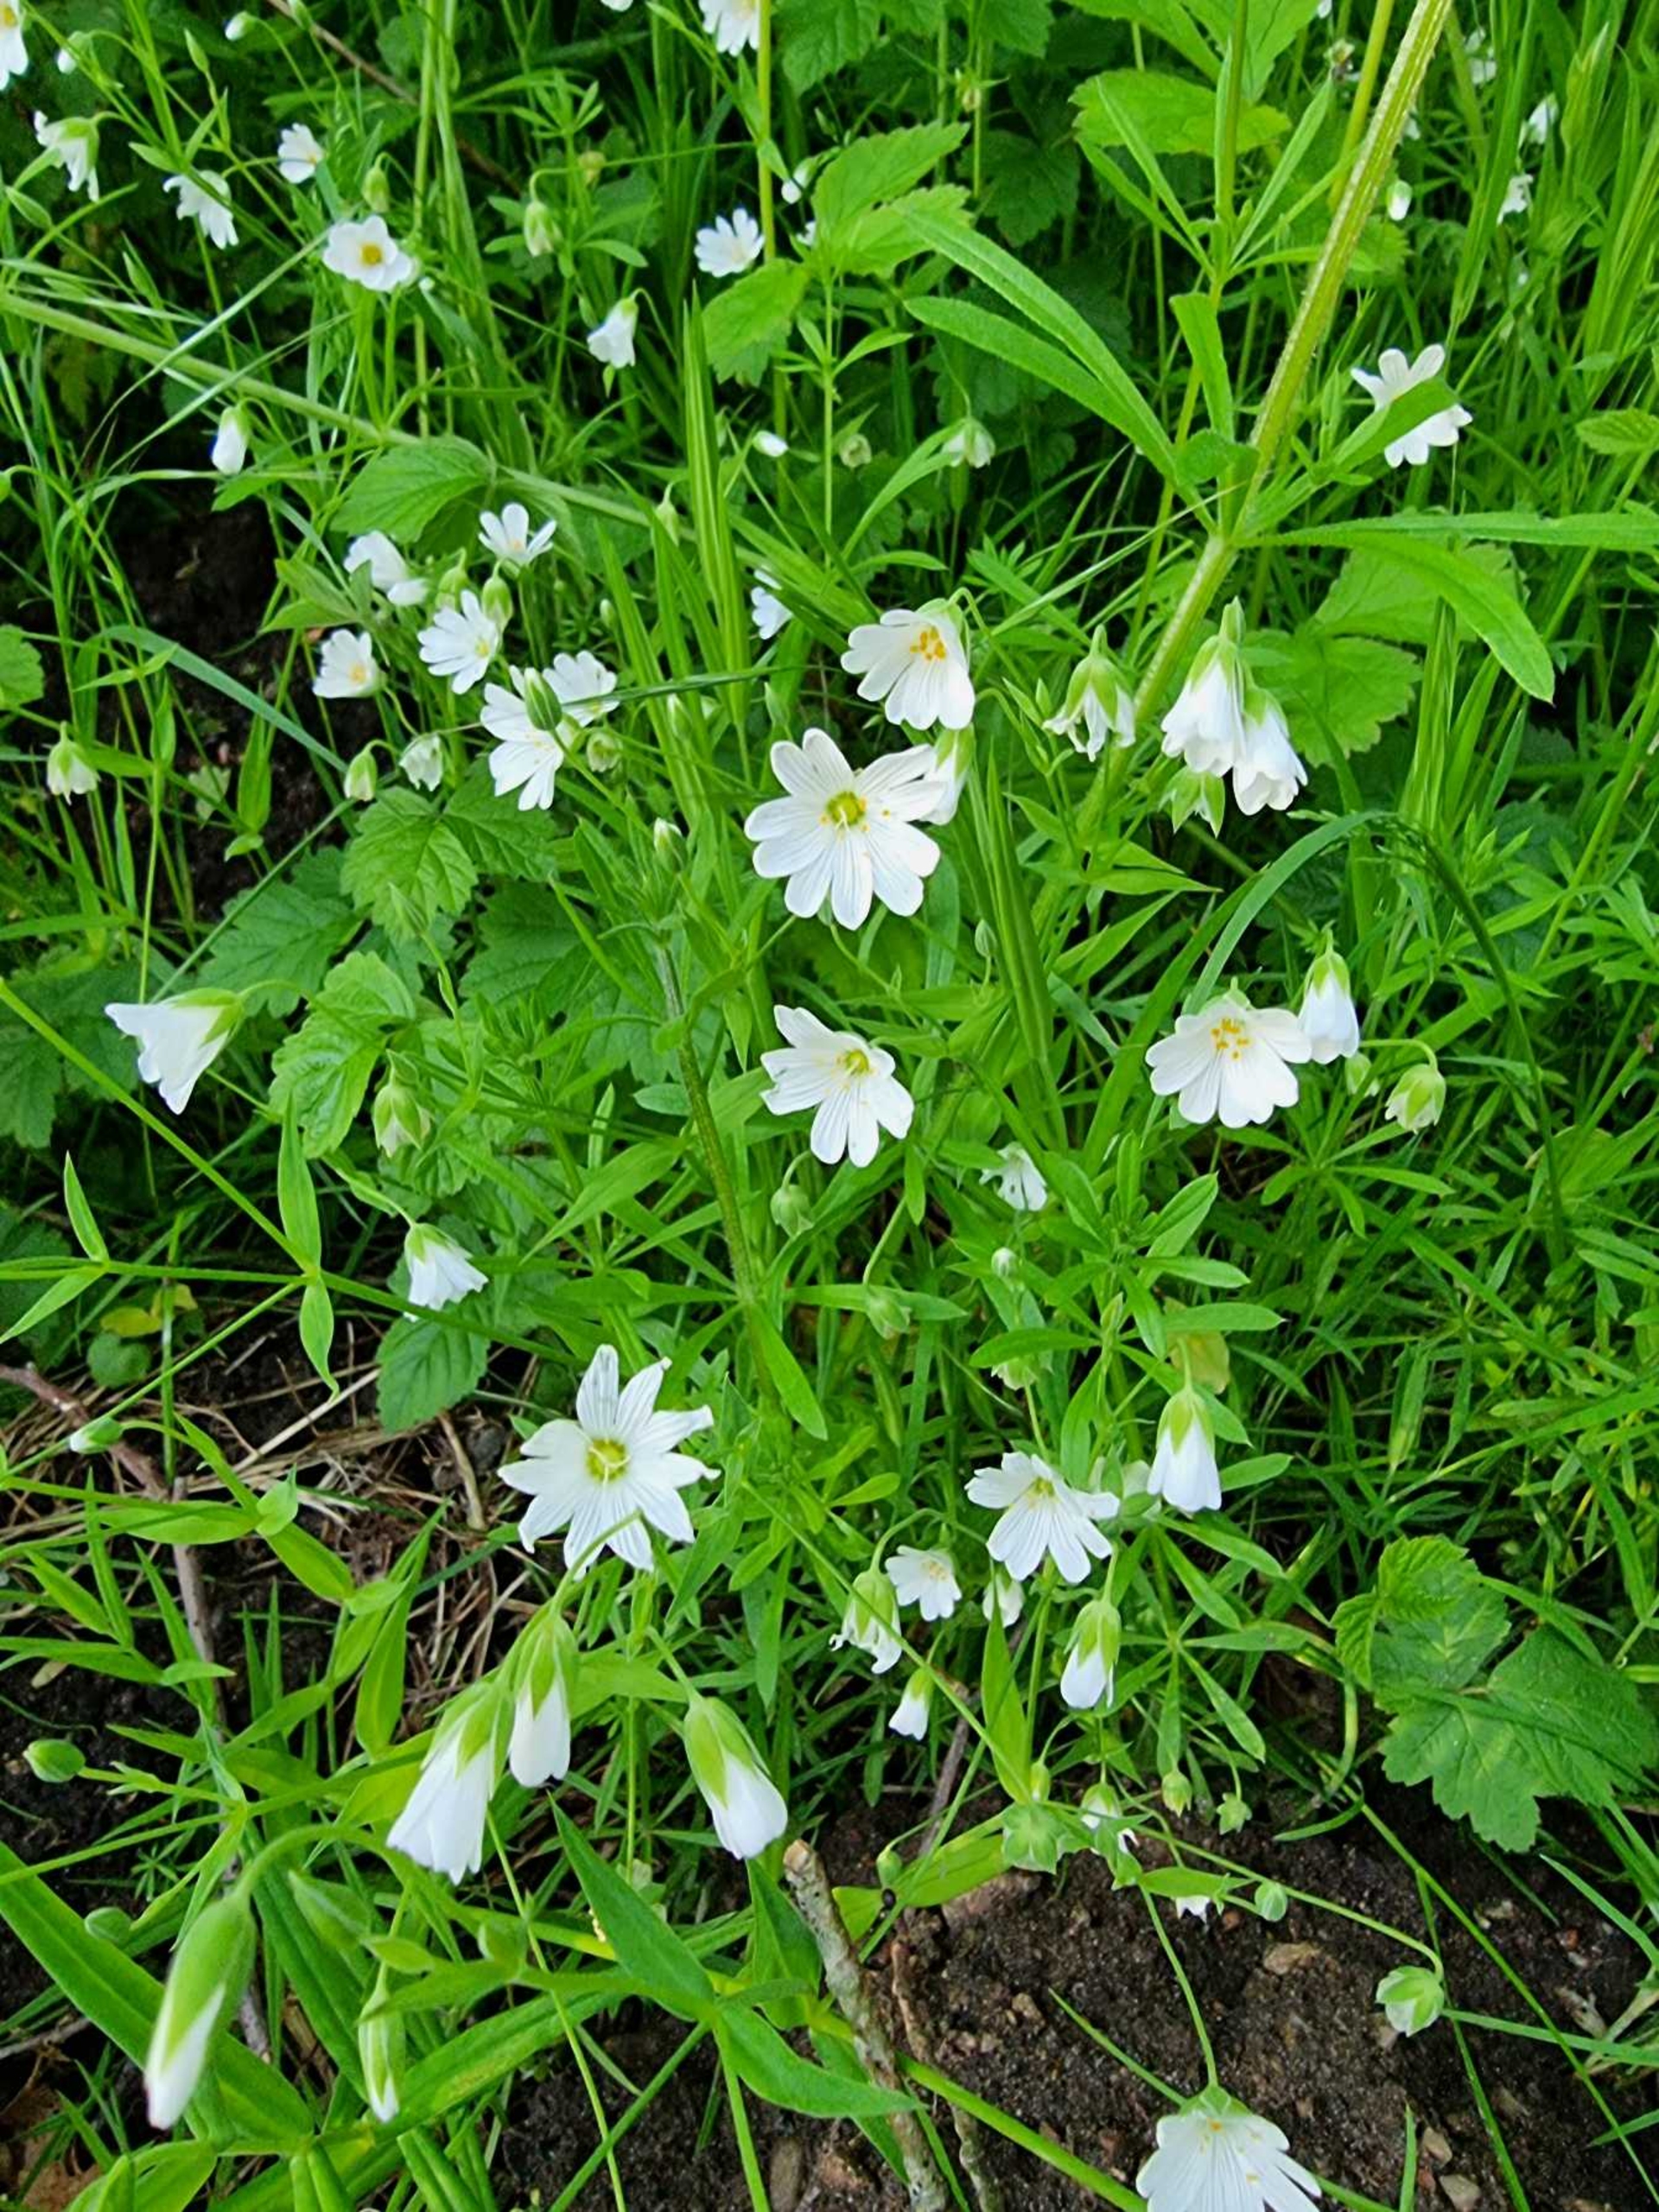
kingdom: Plantae
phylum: Tracheophyta
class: Magnoliopsida
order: Caryophyllales
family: Caryophyllaceae
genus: Rabelera
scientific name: Rabelera holostea
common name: Stor fladstjerne
